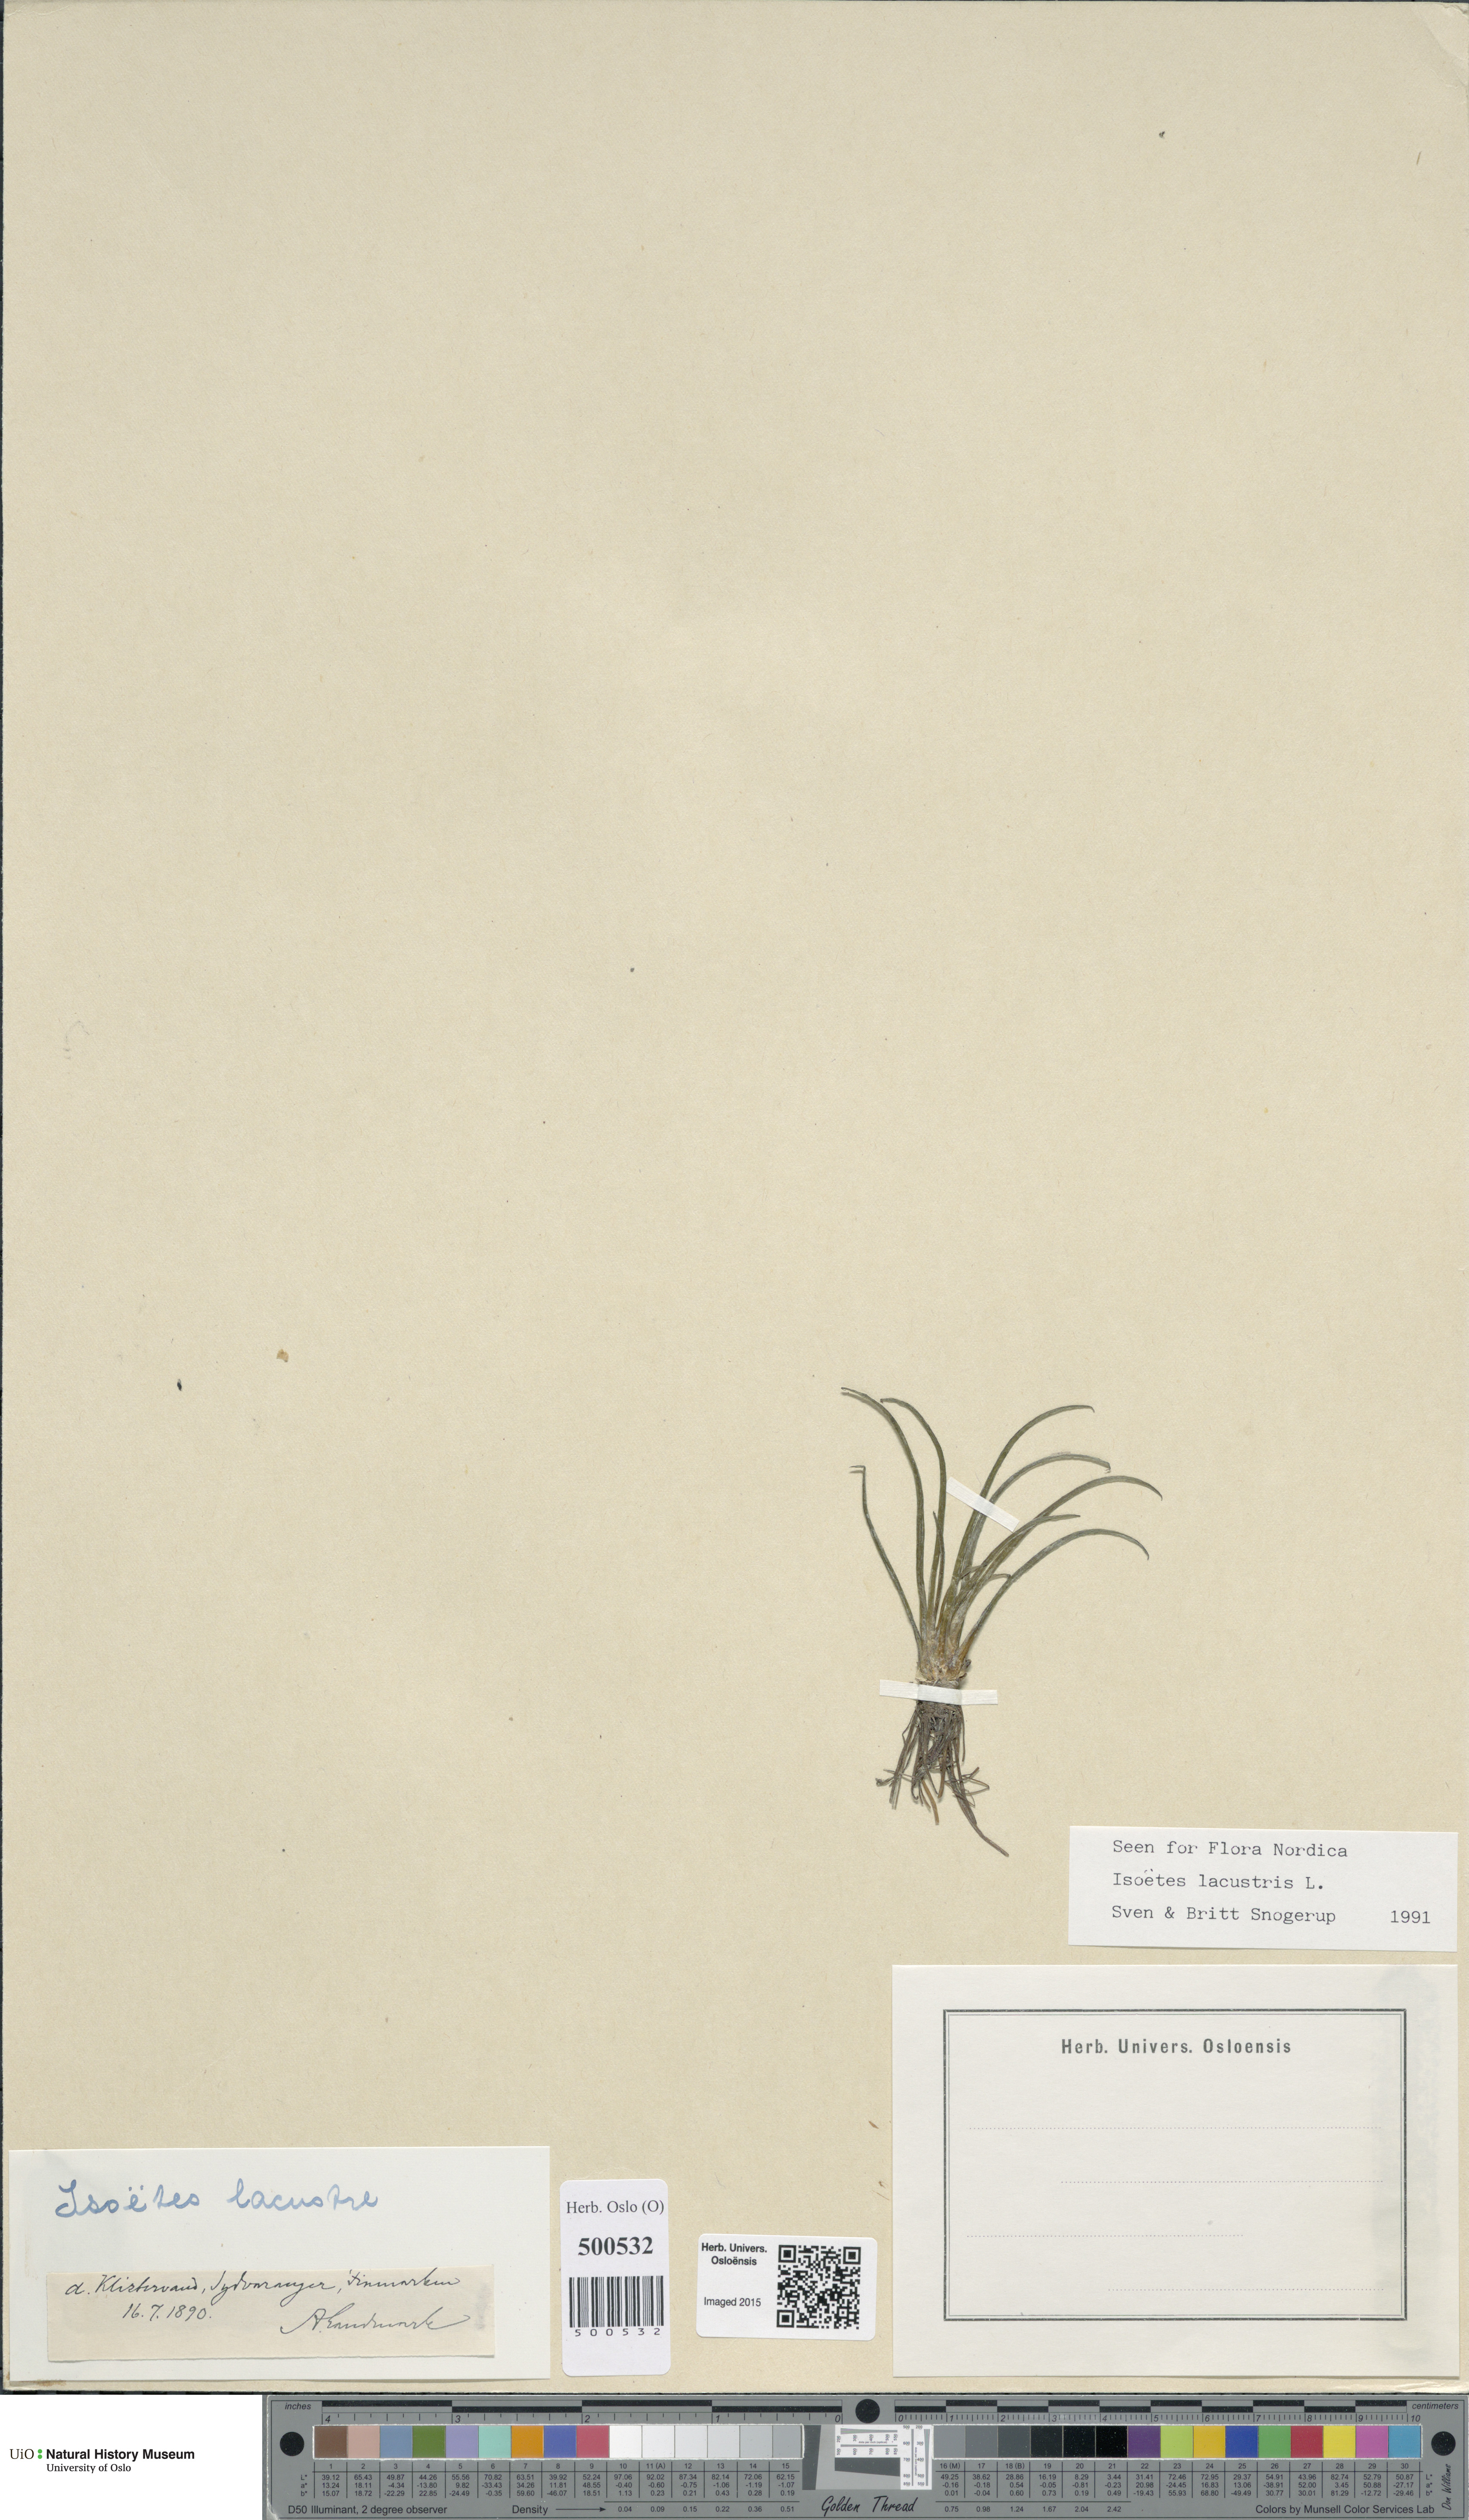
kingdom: Plantae
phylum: Tracheophyta
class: Lycopodiopsida
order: Isoetales
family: Isoetaceae
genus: Isoetes
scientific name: Isoetes lacustris
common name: Common quillwort
